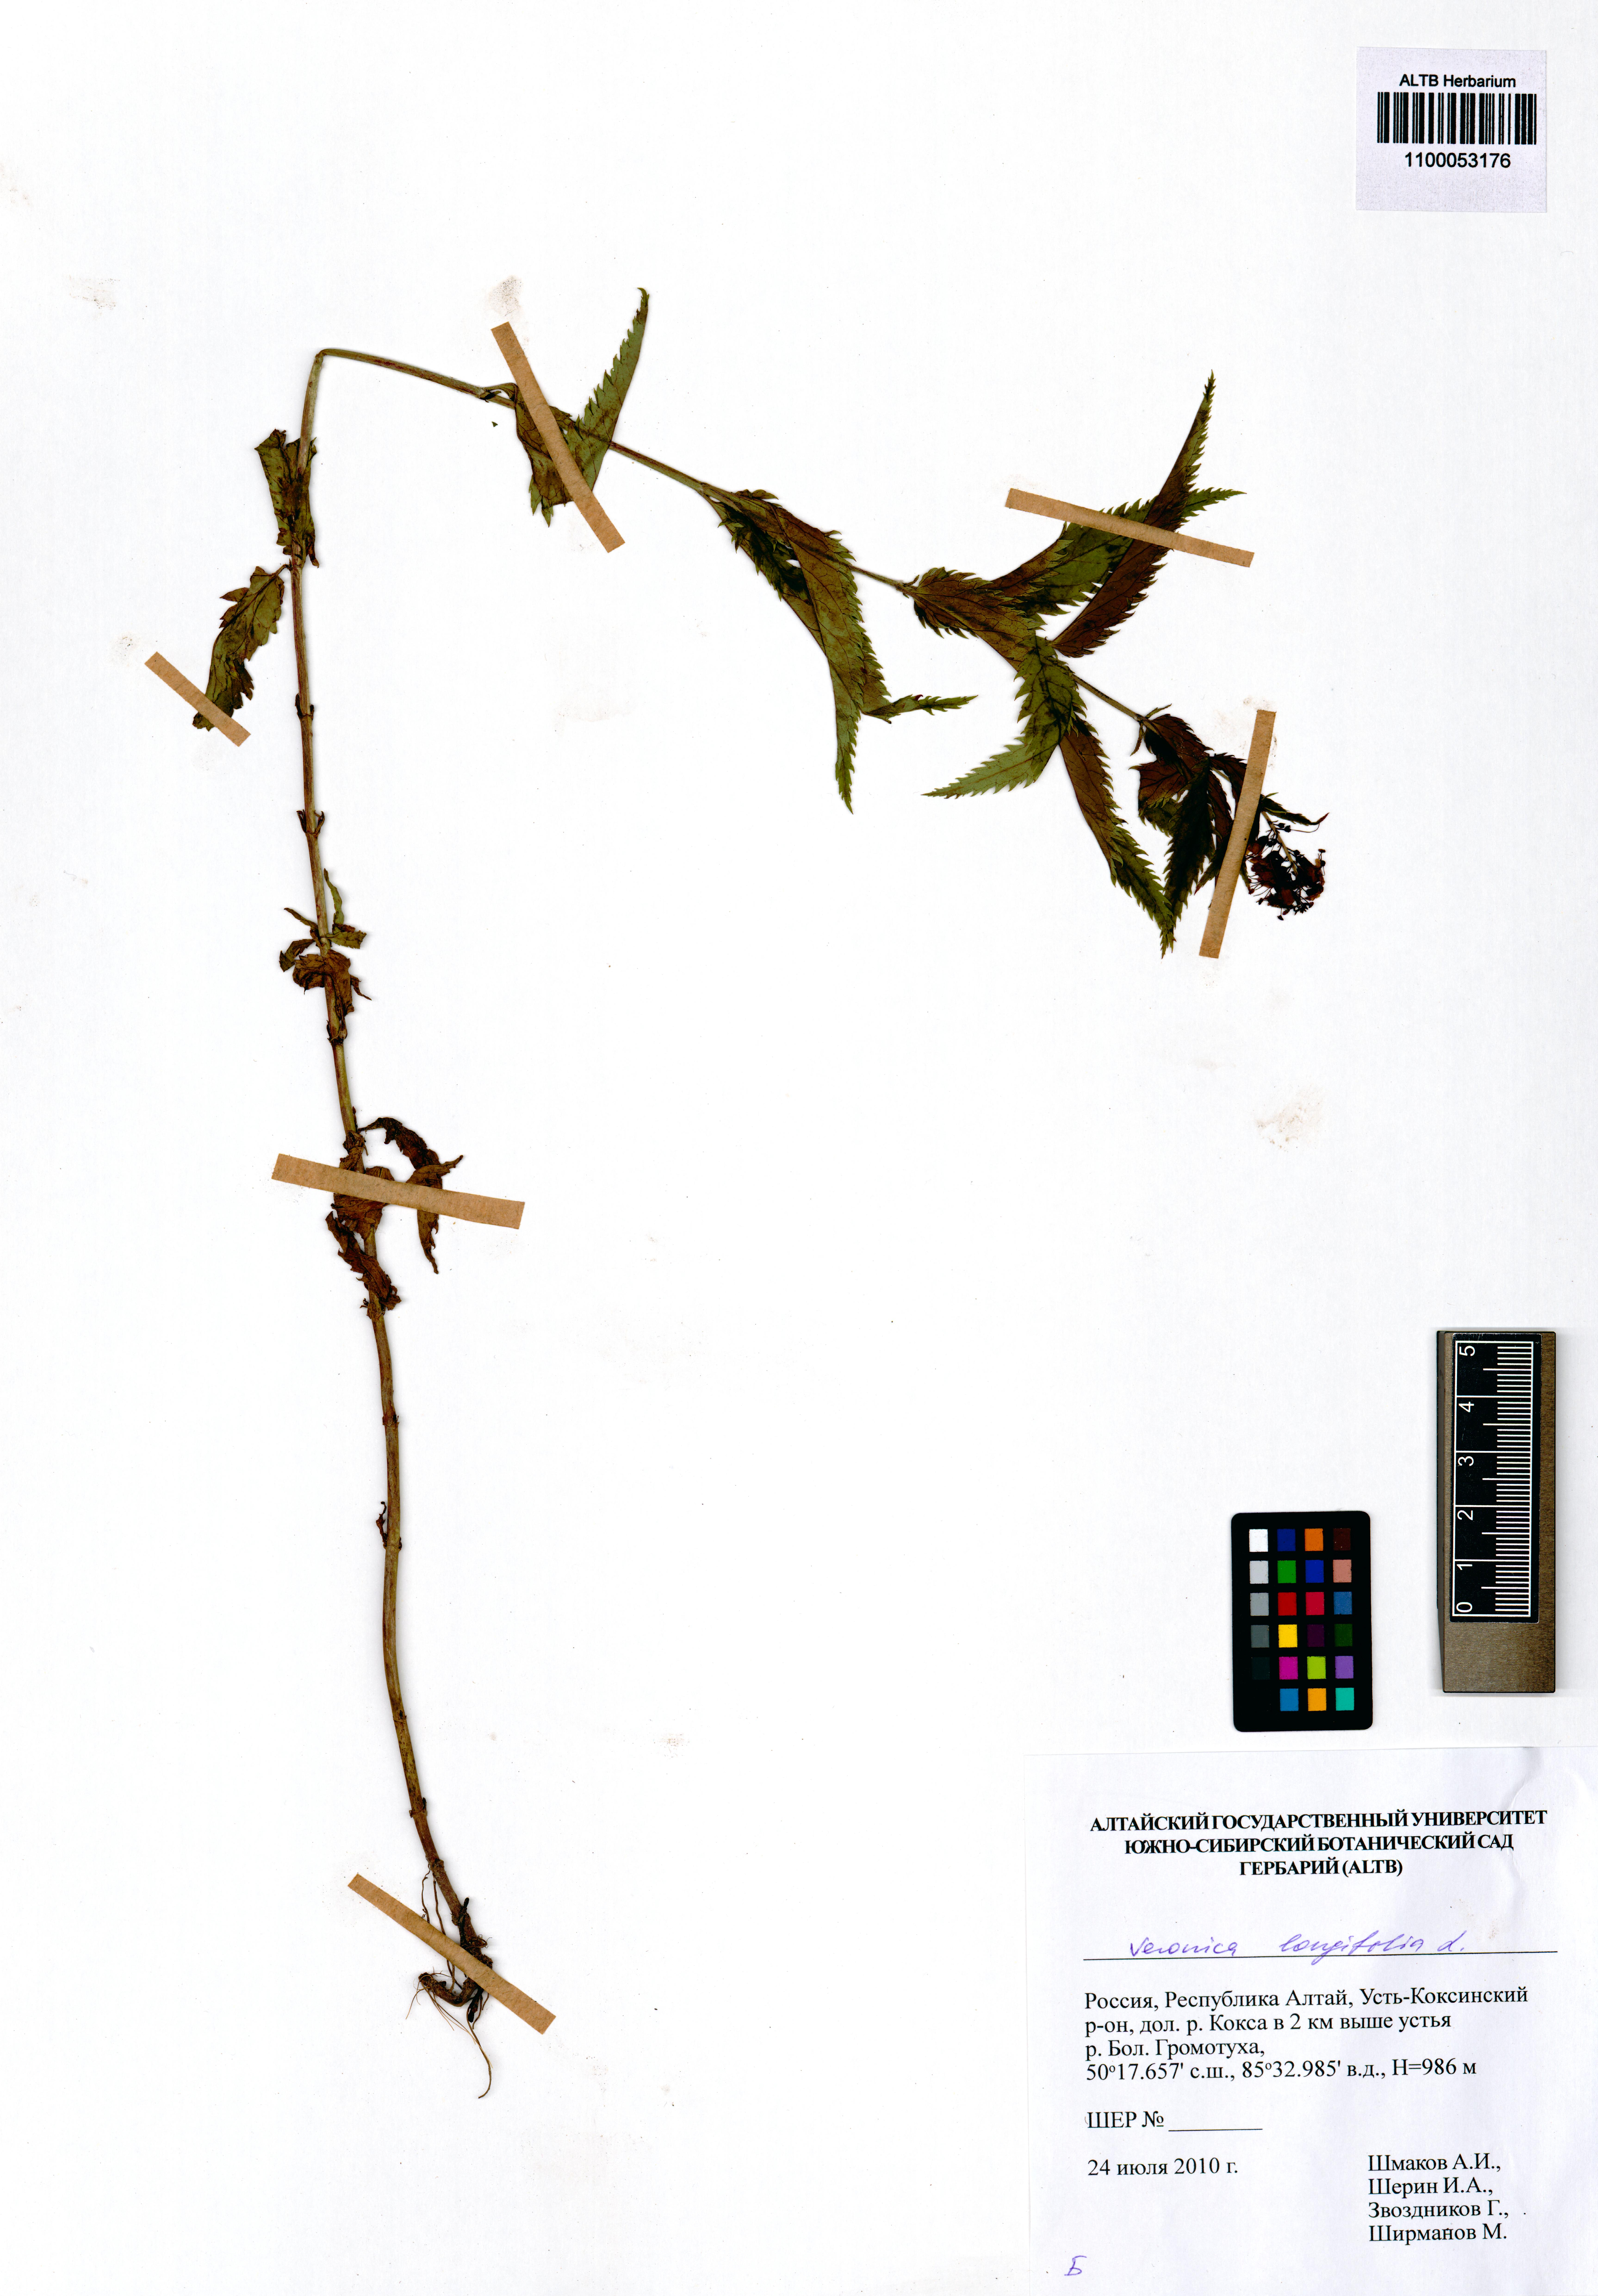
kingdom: Plantae
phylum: Tracheophyta
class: Magnoliopsida
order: Lamiales
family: Plantaginaceae
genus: Veronica
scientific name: Veronica longifolia
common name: Garden speedwell
